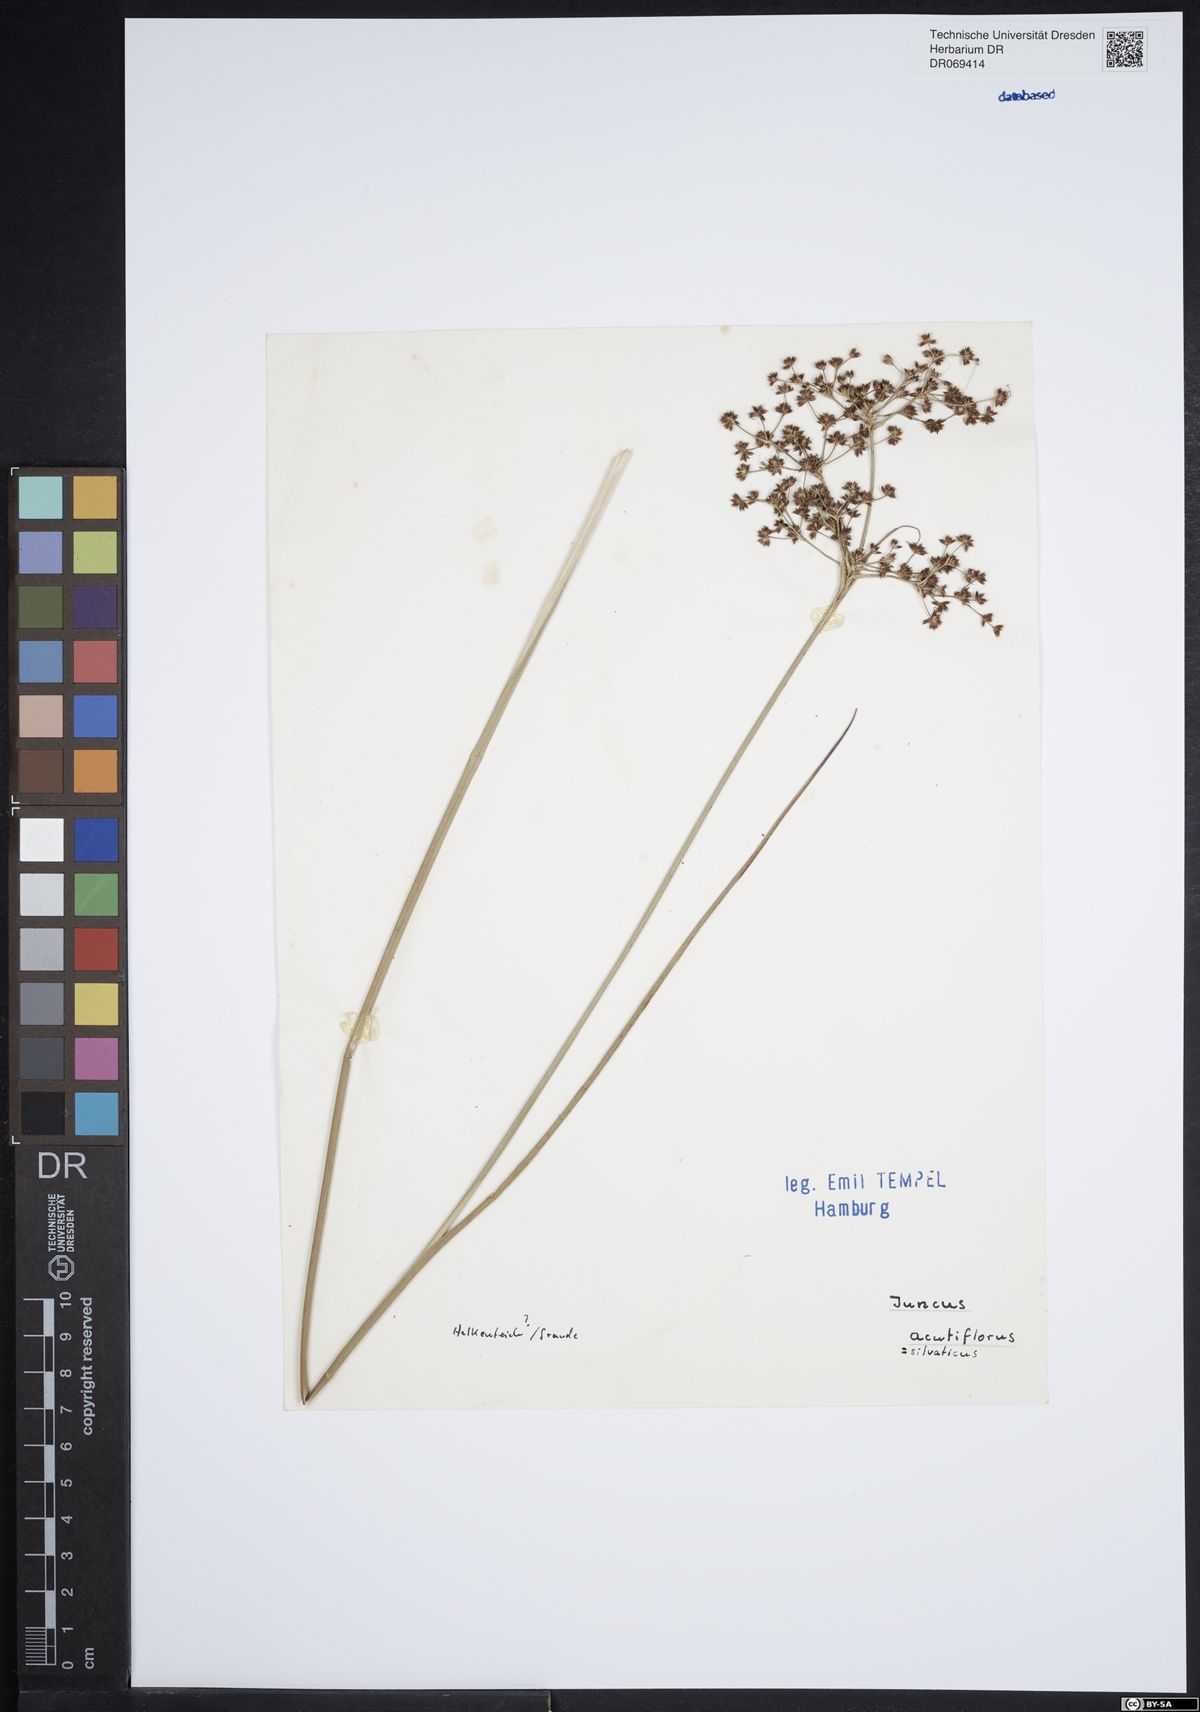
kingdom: Plantae
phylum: Tracheophyta
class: Liliopsida
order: Poales
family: Juncaceae
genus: Juncus
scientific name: Juncus acutiflorus
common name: Sharp-flowered rush
